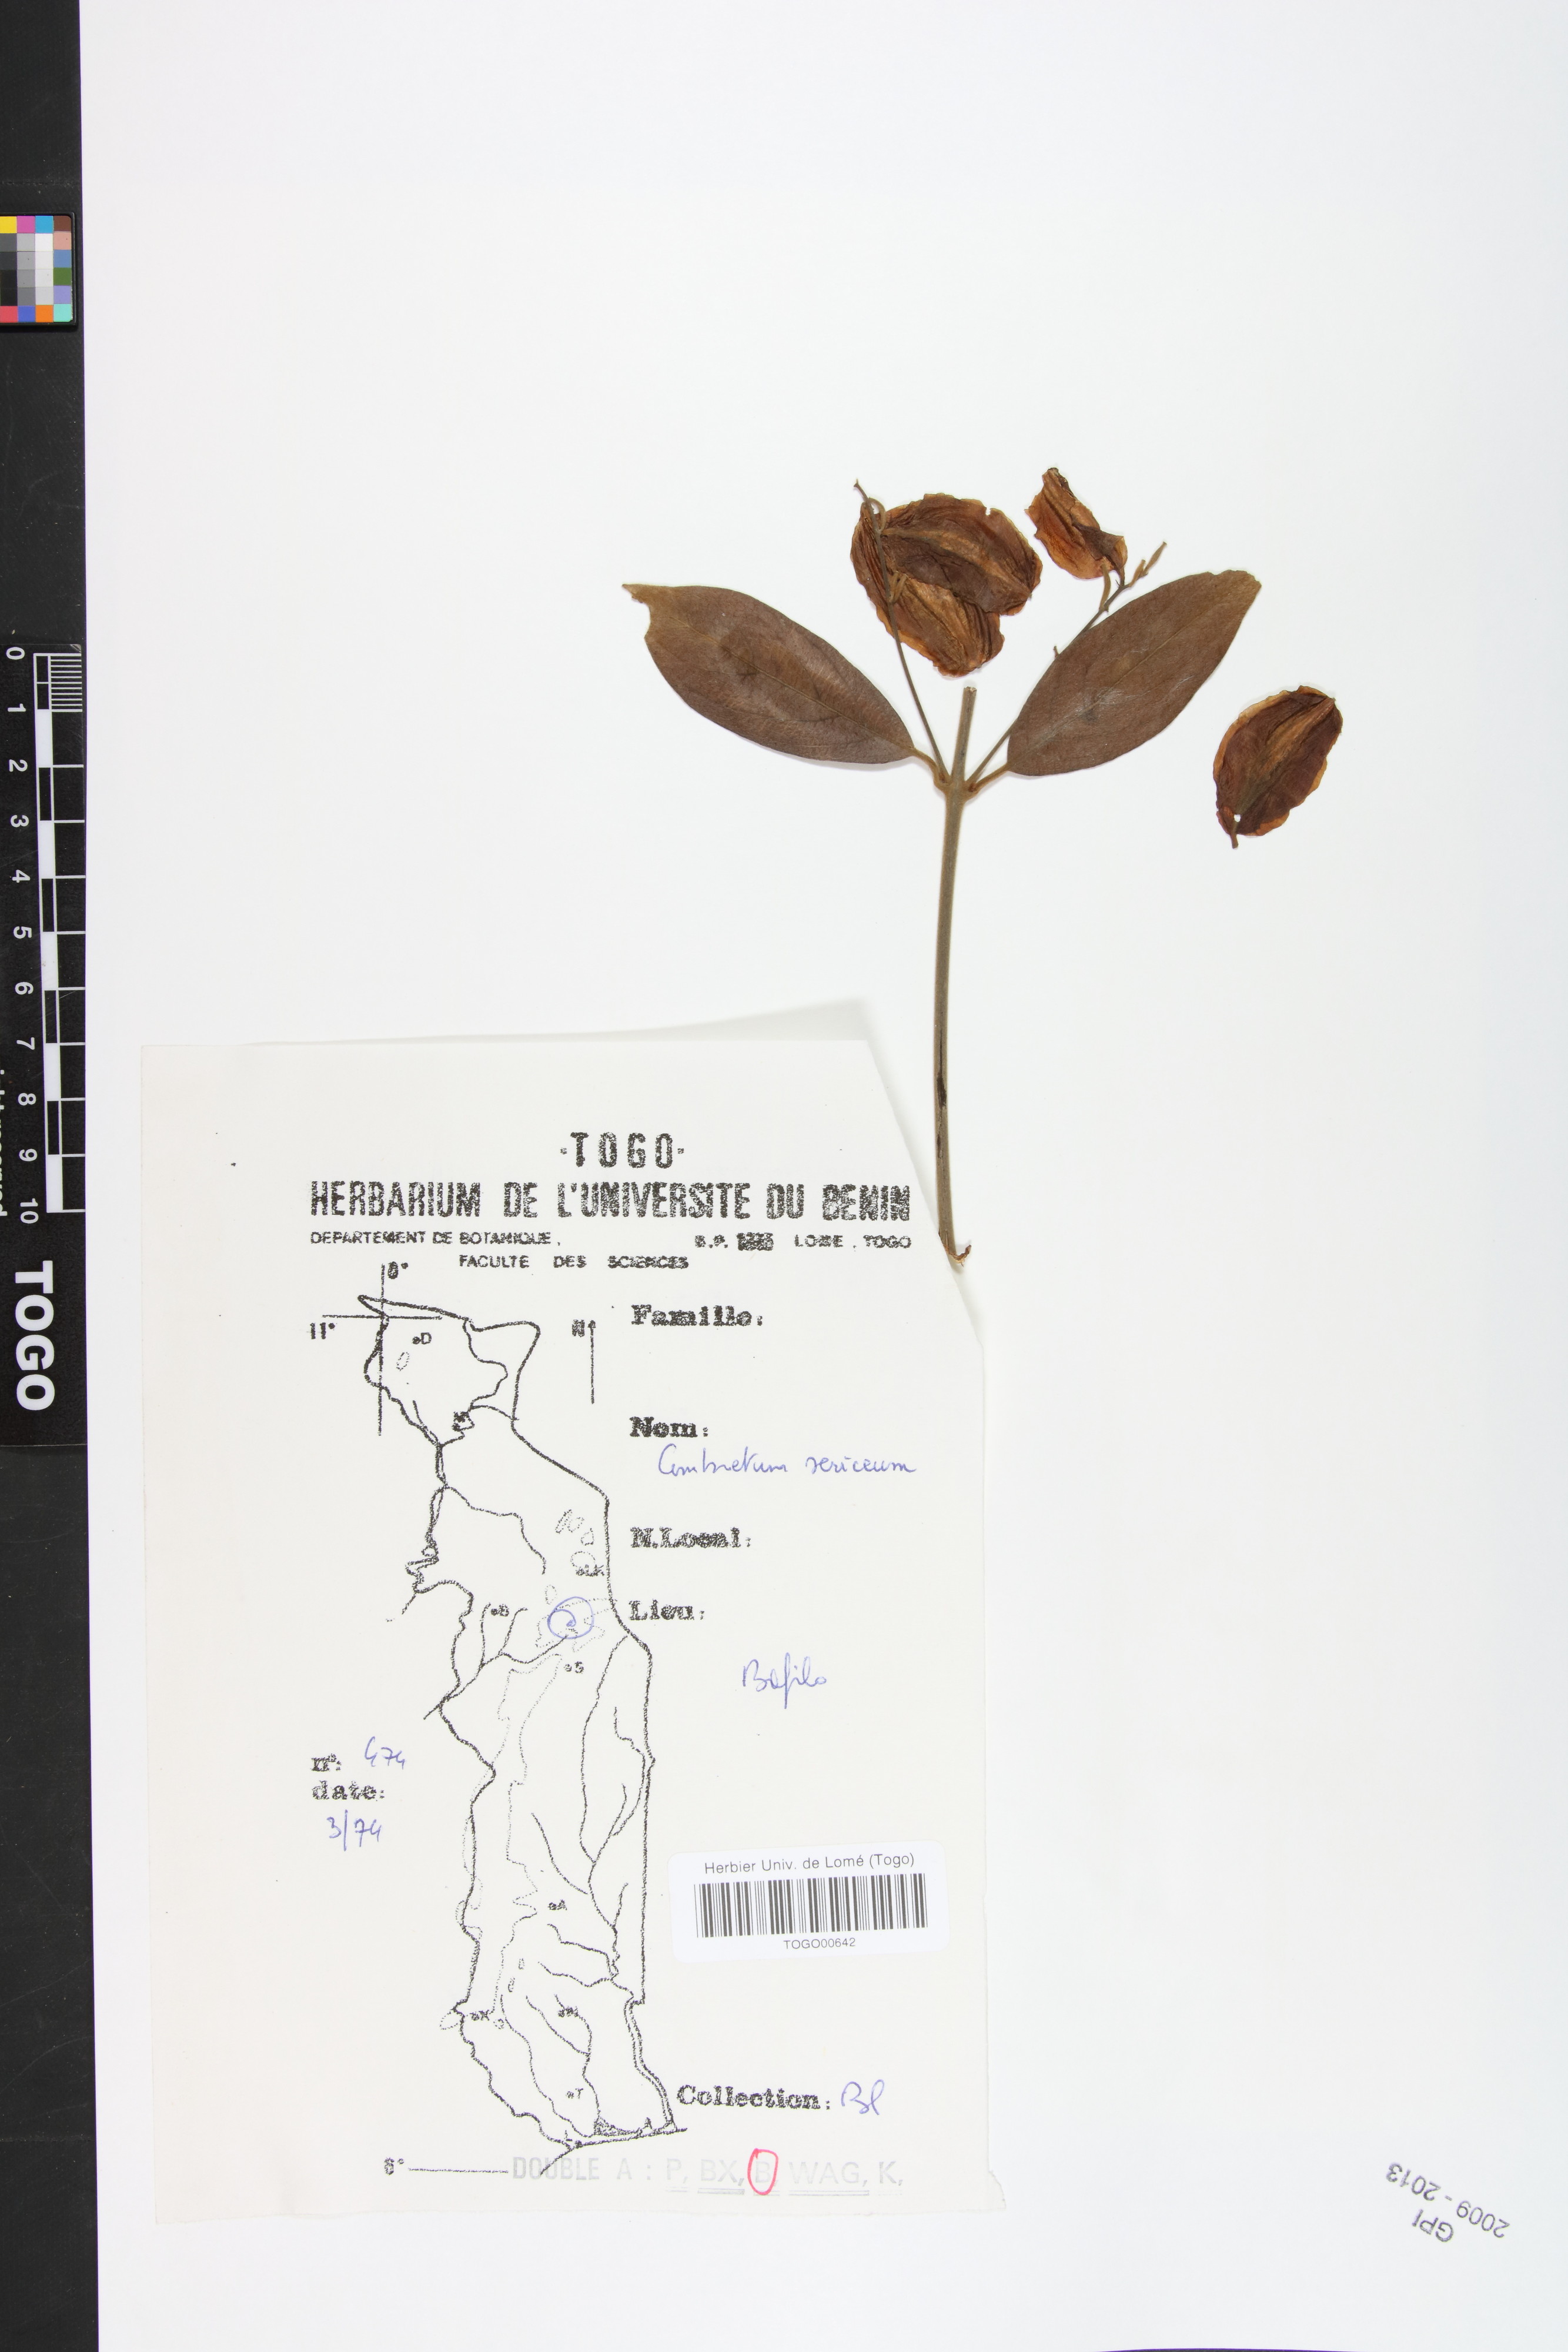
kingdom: Plantae
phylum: Tracheophyta
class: Magnoliopsida
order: Myrtales
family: Combretaceae
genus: Combretum
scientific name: Combretum sericeum
